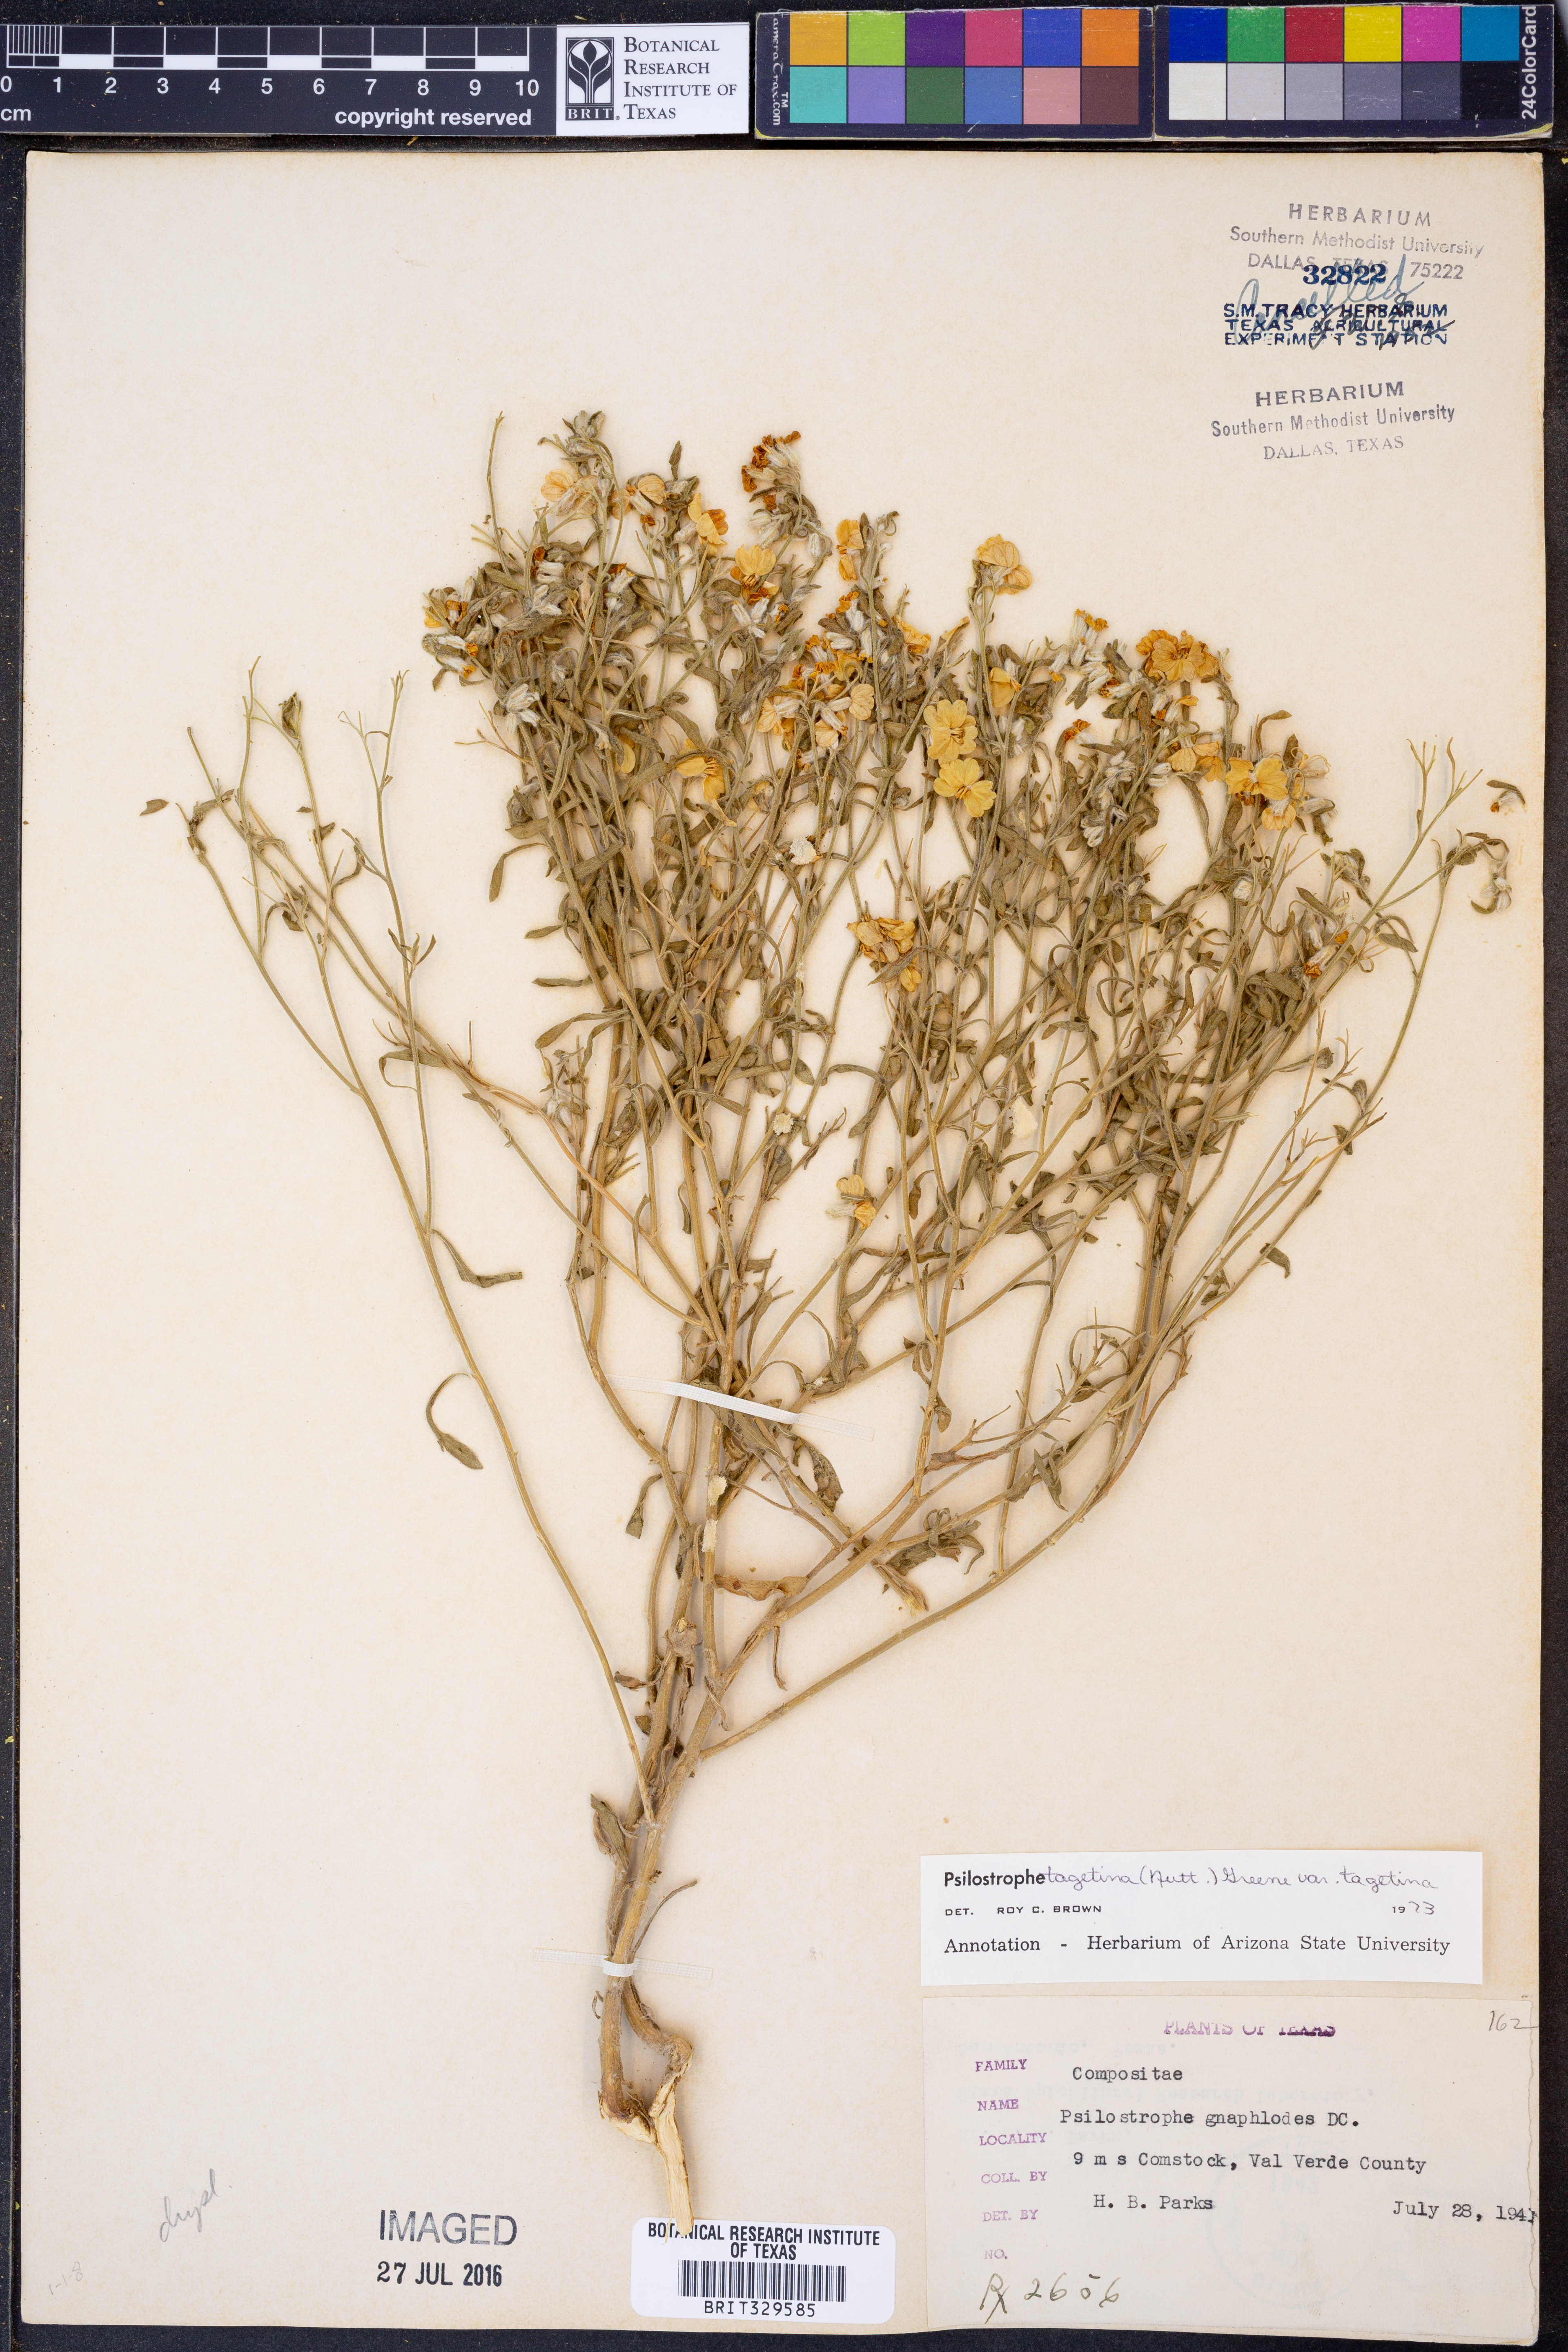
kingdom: Plantae
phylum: Tracheophyta
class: Magnoliopsida
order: Asterales
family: Asteraceae
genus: Psilostrophe
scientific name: Psilostrophe tagetina
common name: Marigold paper-flower
